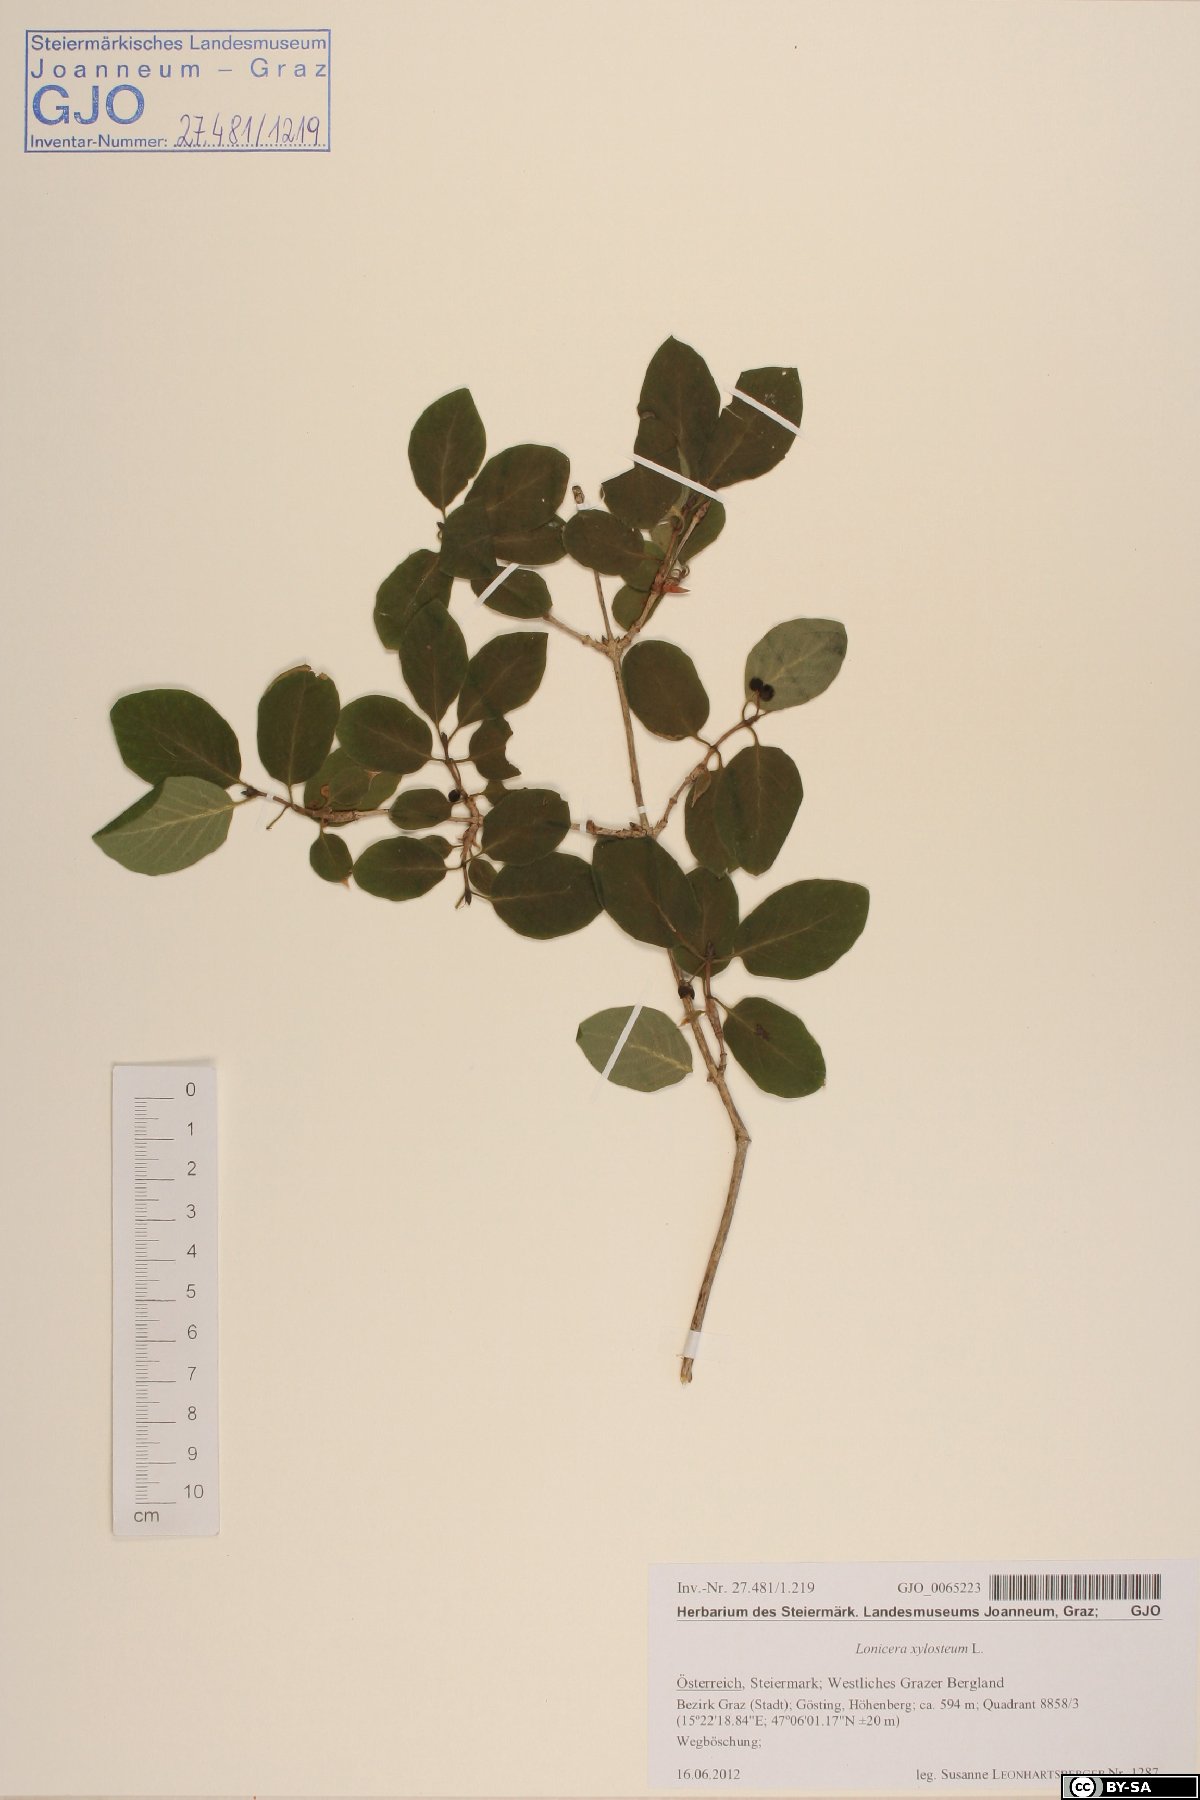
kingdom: Plantae
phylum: Tracheophyta
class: Magnoliopsida
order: Dipsacales
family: Caprifoliaceae
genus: Lonicera
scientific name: Lonicera xylosteum
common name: Fly honeysuckle
